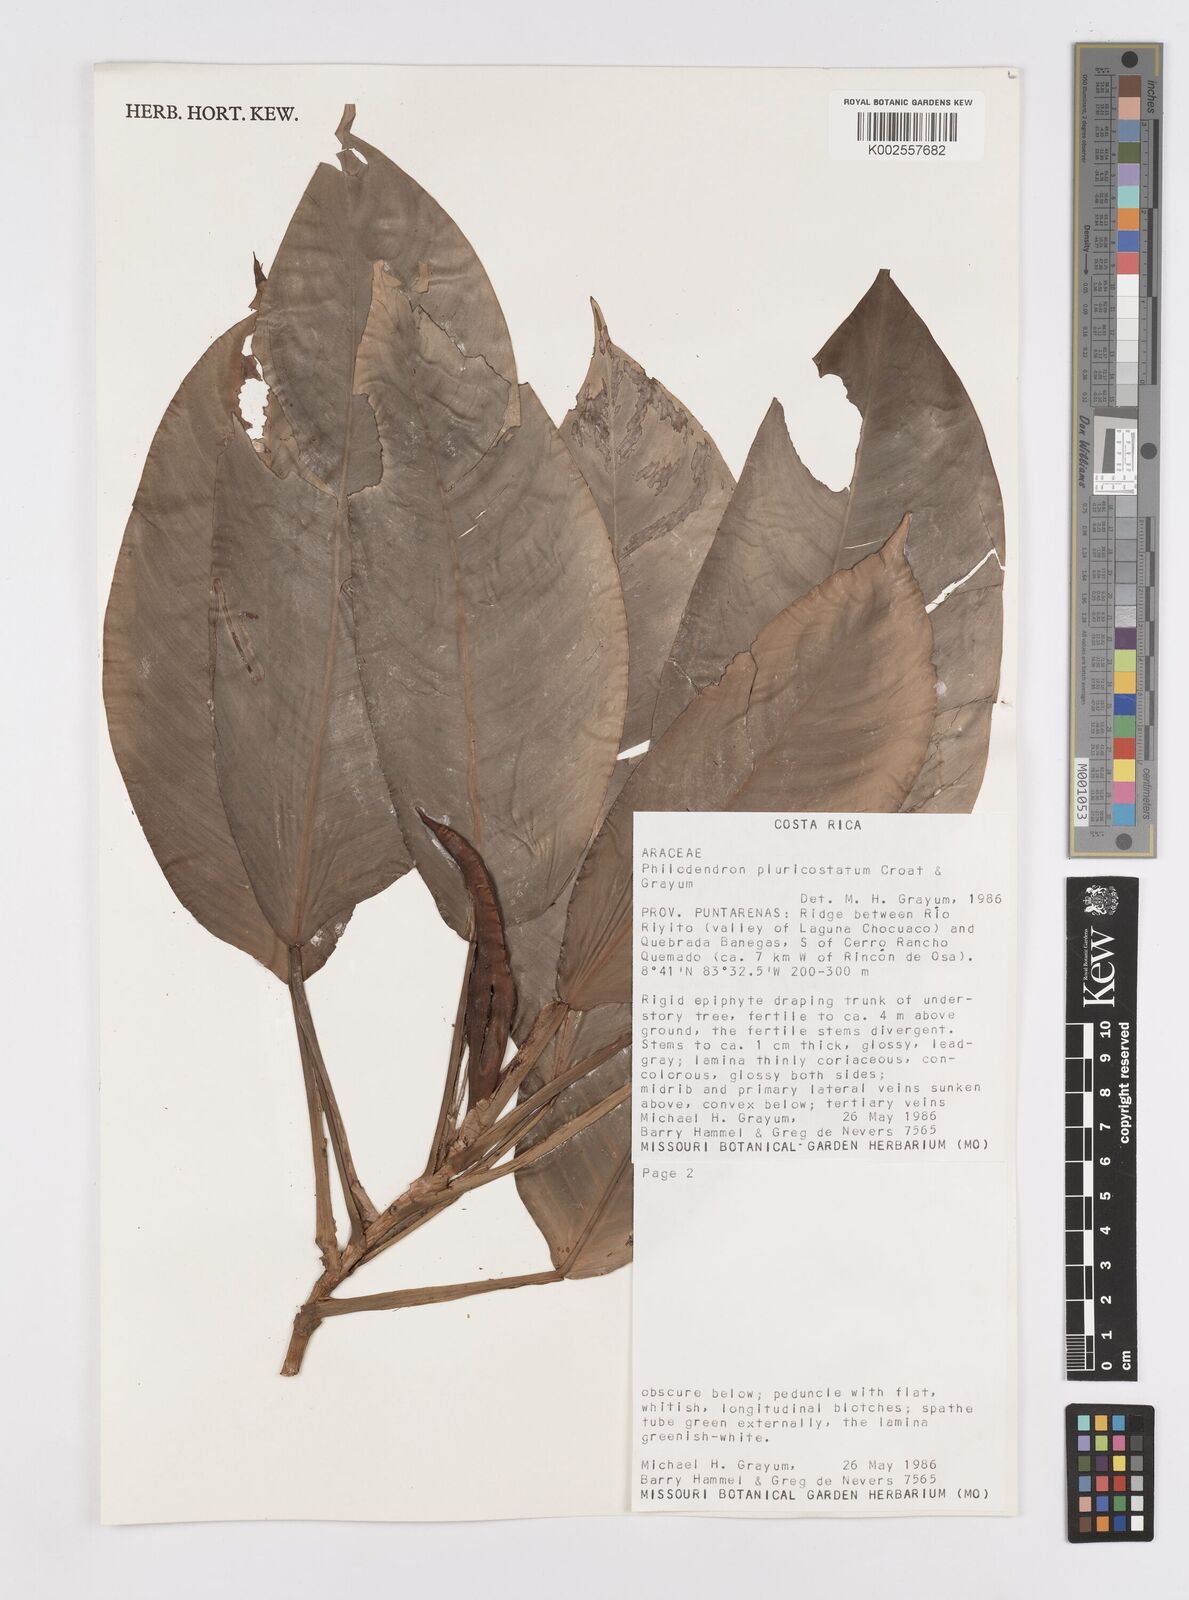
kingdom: Plantae
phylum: Tracheophyta
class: Liliopsida
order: Alismatales
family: Araceae
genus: Philodendron
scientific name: Philodendron
